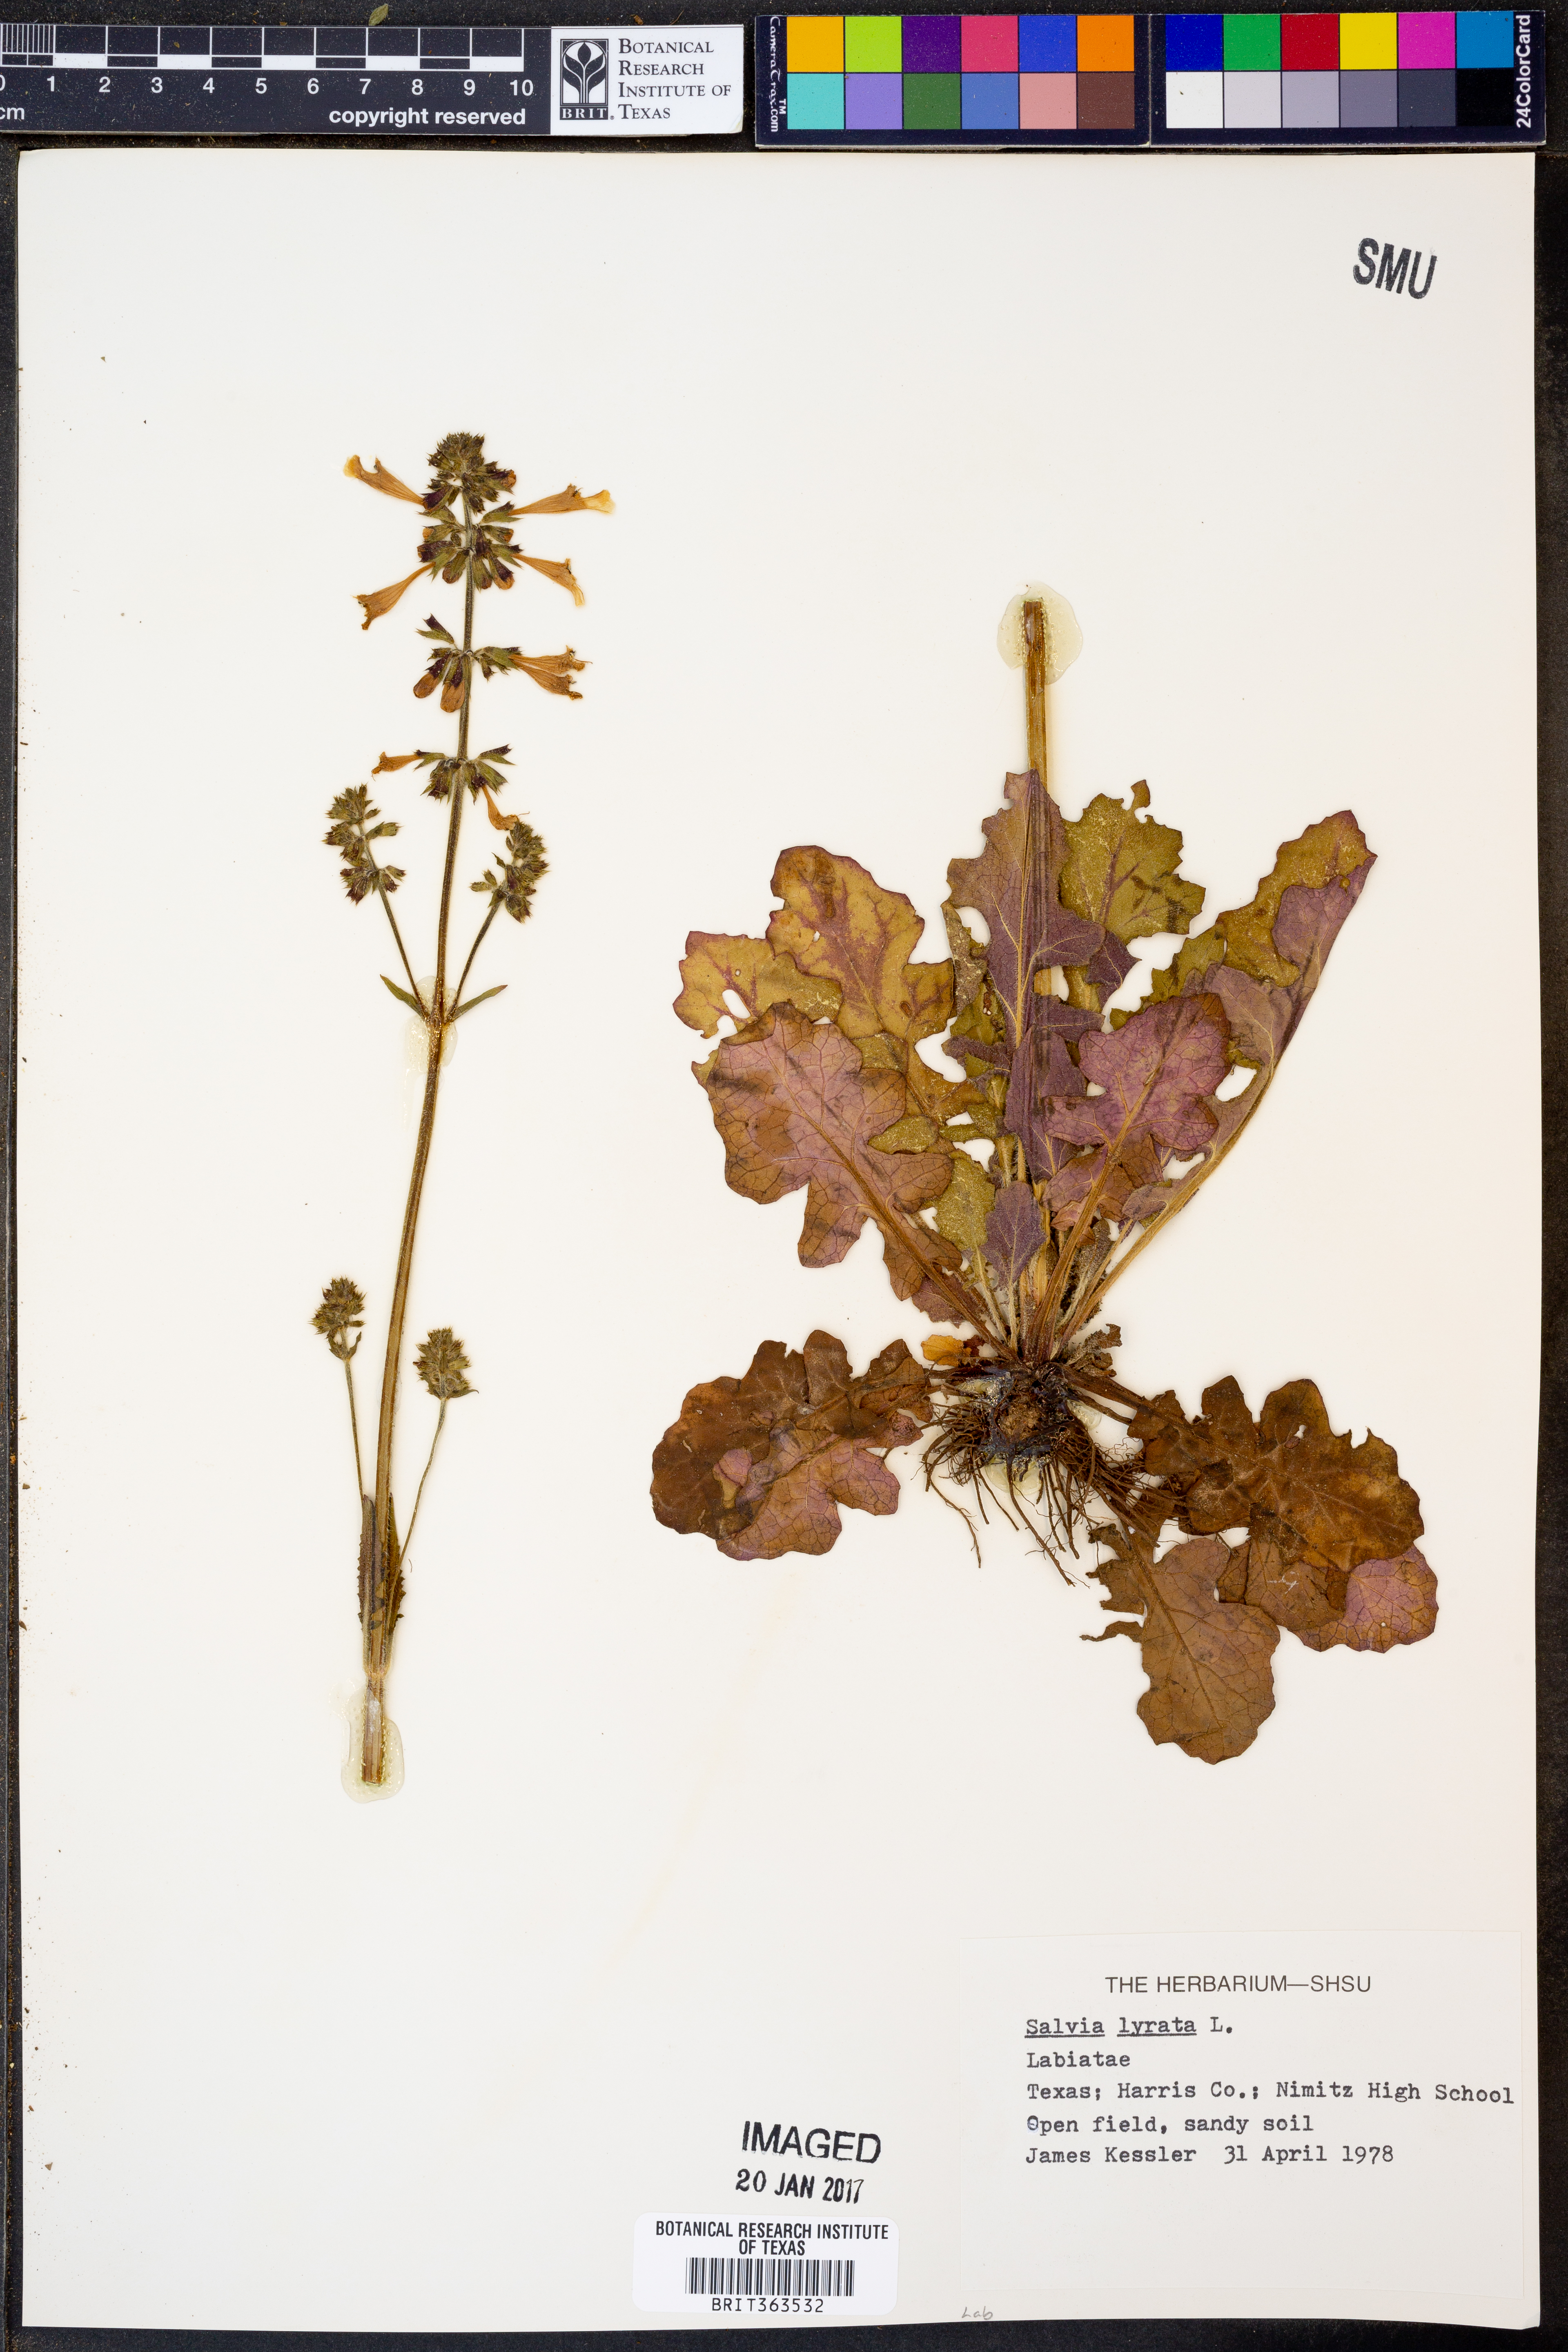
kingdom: Plantae
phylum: Tracheophyta
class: Magnoliopsida
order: Lamiales
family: Lamiaceae
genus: Salvia
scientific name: Salvia lyrata
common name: Cancerweed
